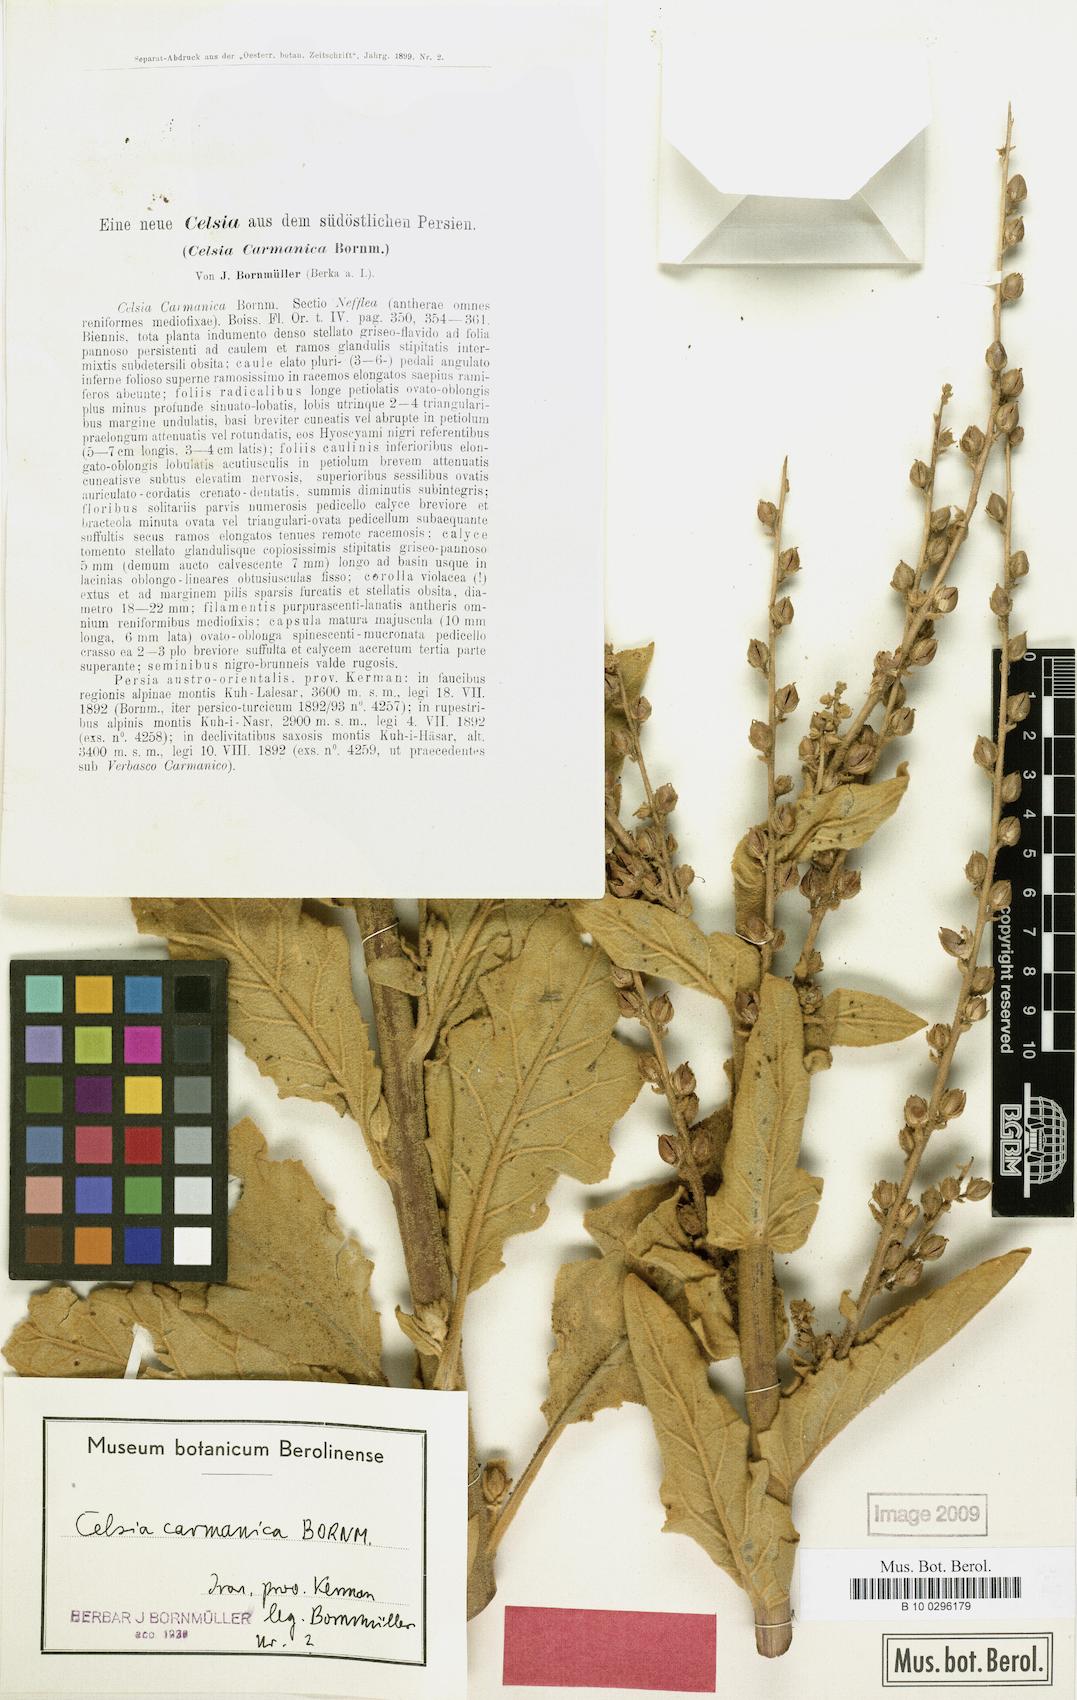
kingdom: Plantae
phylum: Tracheophyta
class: Magnoliopsida
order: Lamiales
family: Scrophulariaceae
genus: Verbascum
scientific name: Verbascum carmanicum
